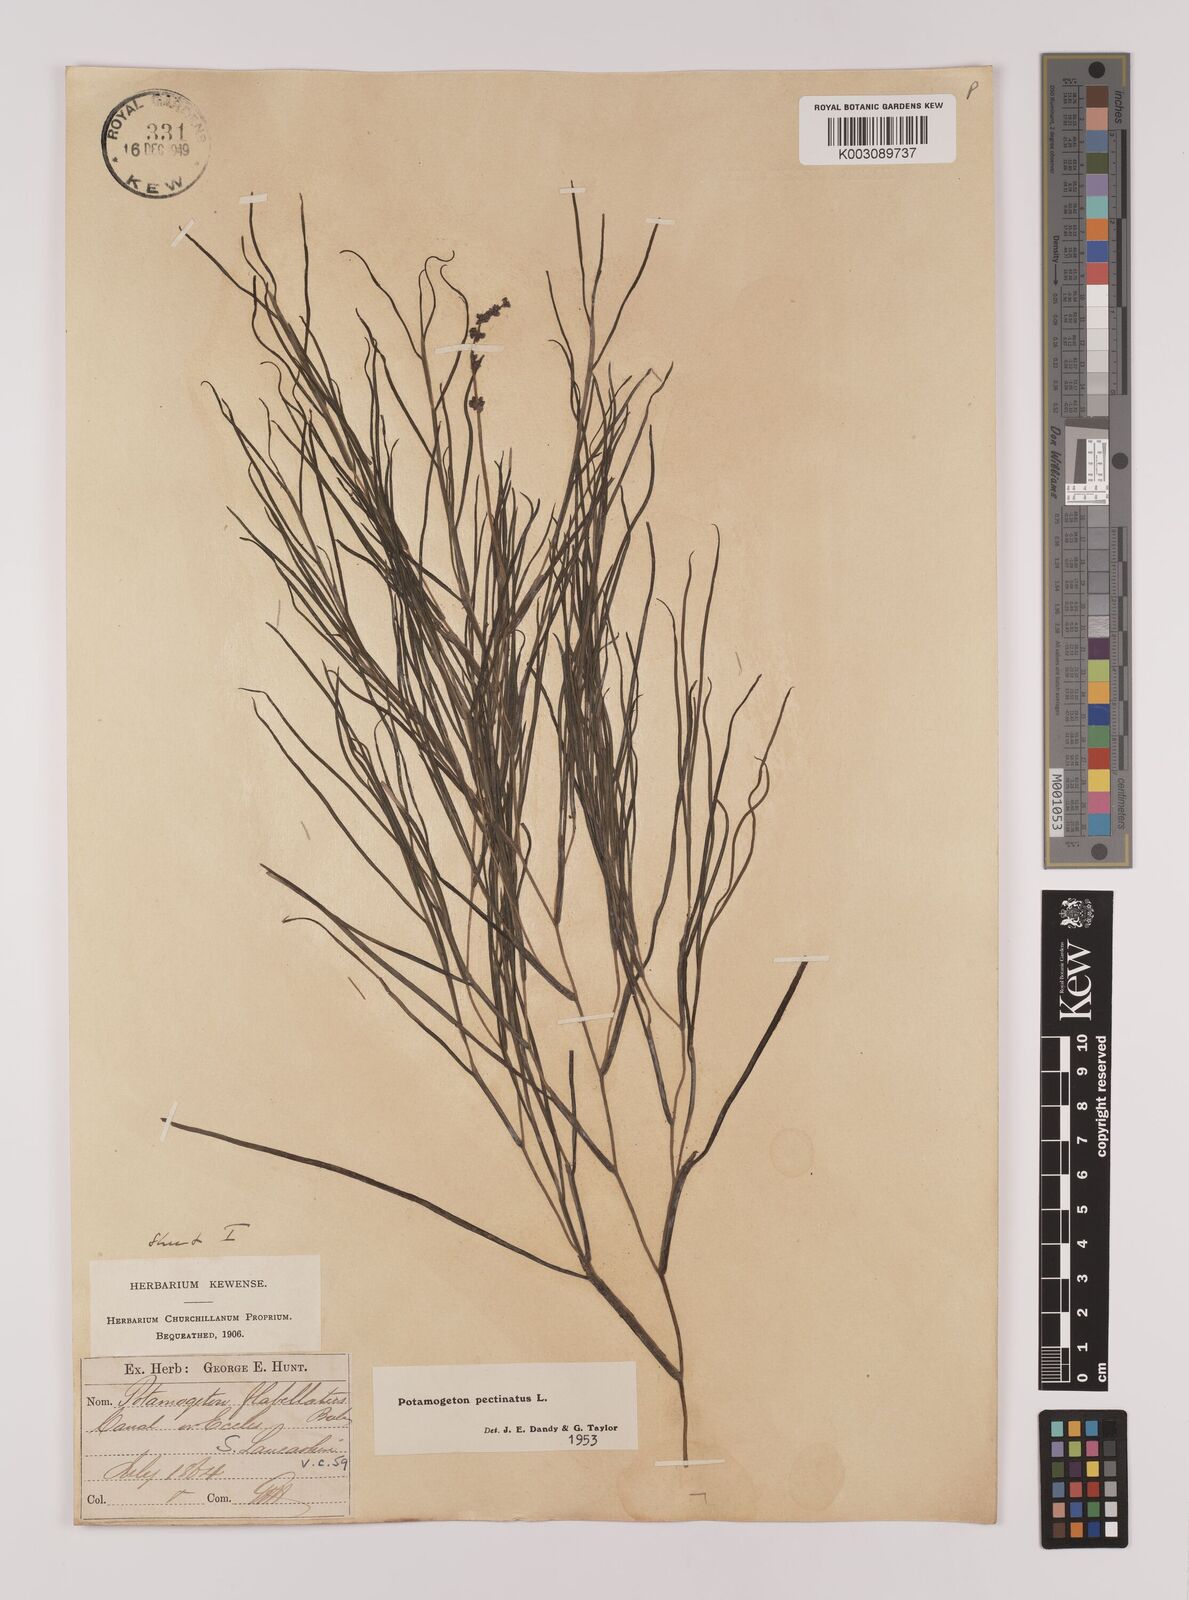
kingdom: Plantae
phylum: Tracheophyta
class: Liliopsida
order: Alismatales
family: Potamogetonaceae
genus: Stuckenia
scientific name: Stuckenia pectinata
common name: Sago pondweed
